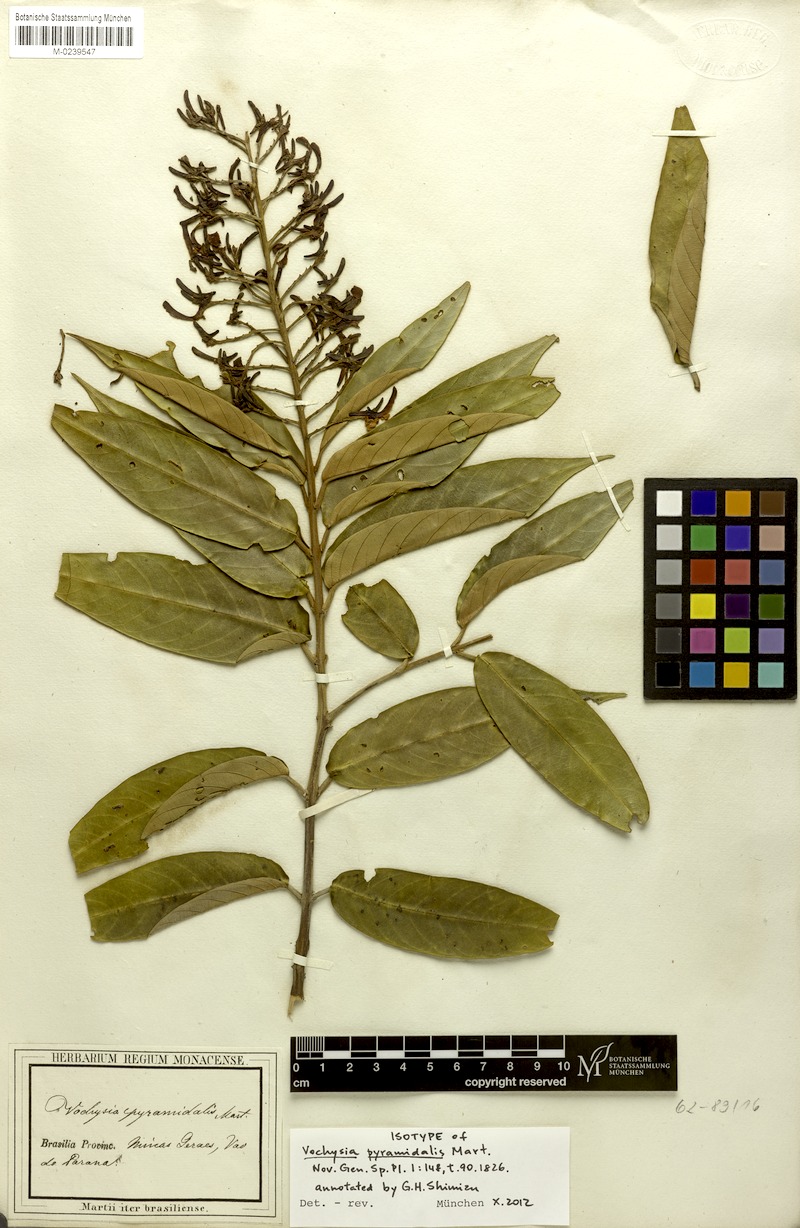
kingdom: Plantae
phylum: Tracheophyta
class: Magnoliopsida
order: Myrtales
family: Vochysiaceae
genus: Vochysia
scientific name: Vochysia pyramidalis
